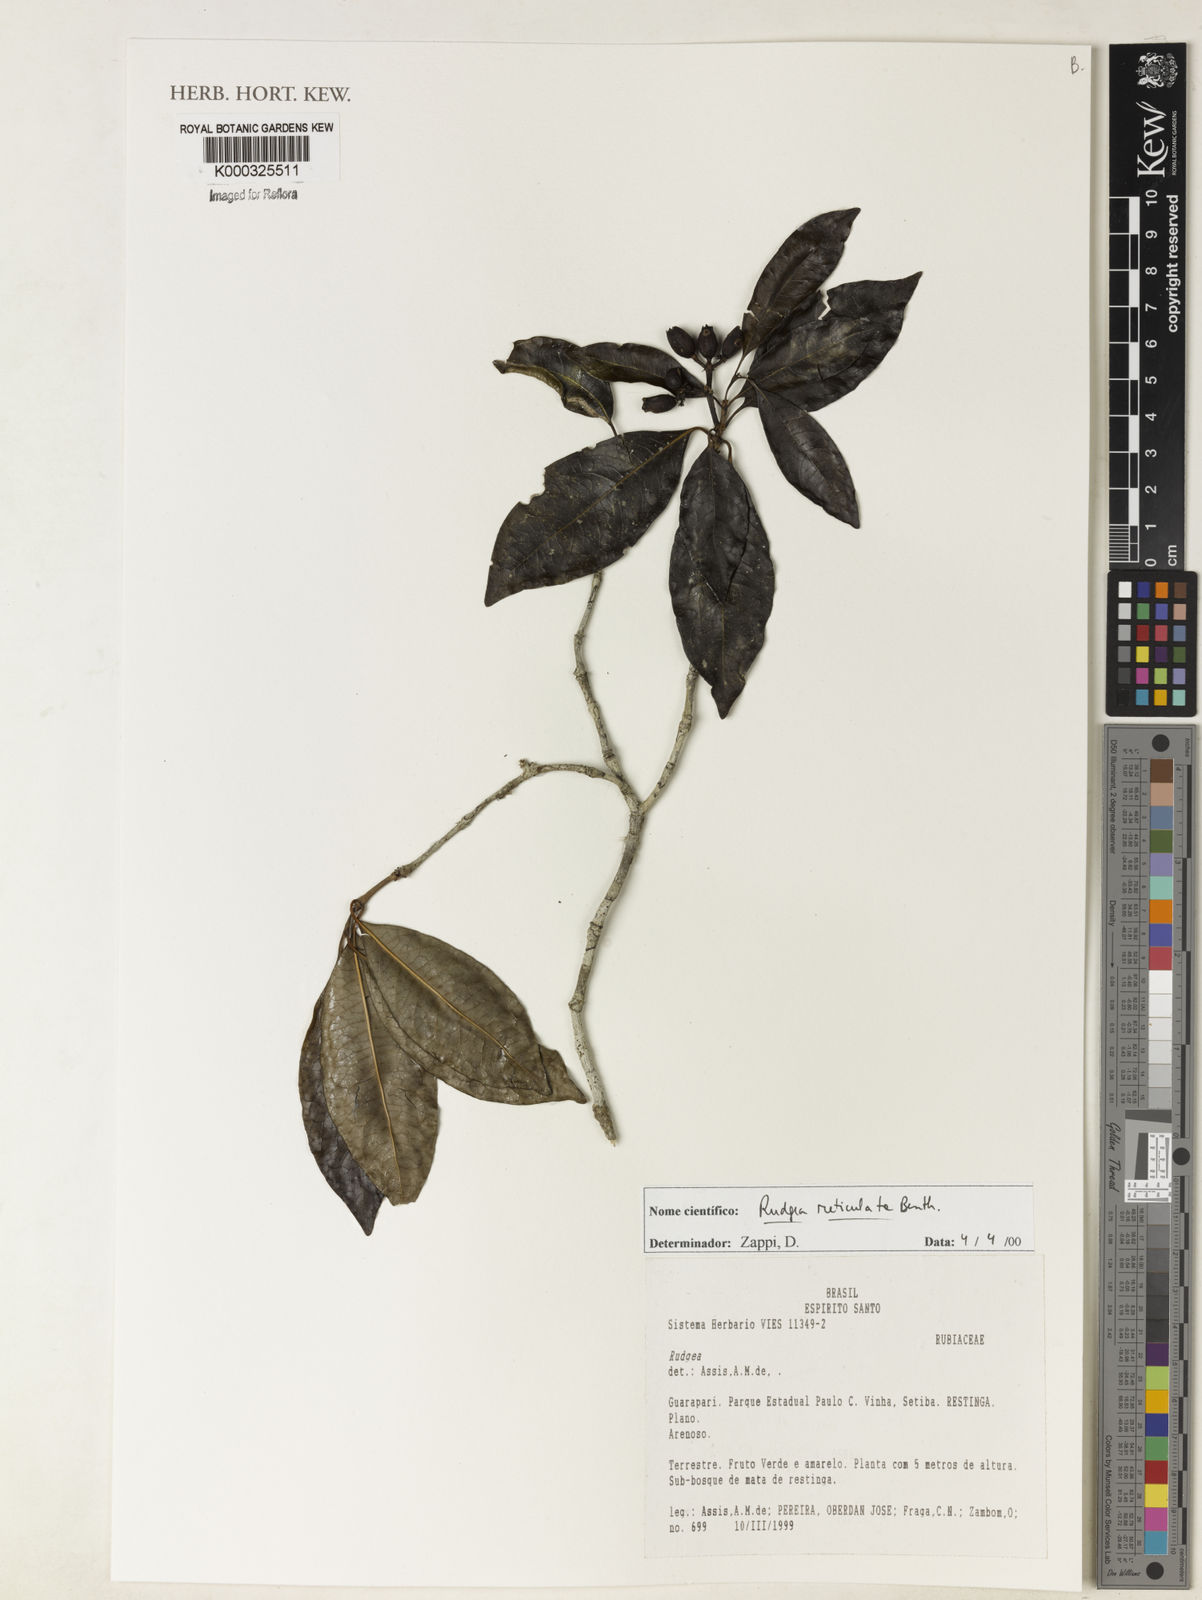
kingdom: Plantae
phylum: Tracheophyta
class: Magnoliopsida
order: Gentianales
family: Rubiaceae
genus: Rudgea
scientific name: Rudgea reticulata
